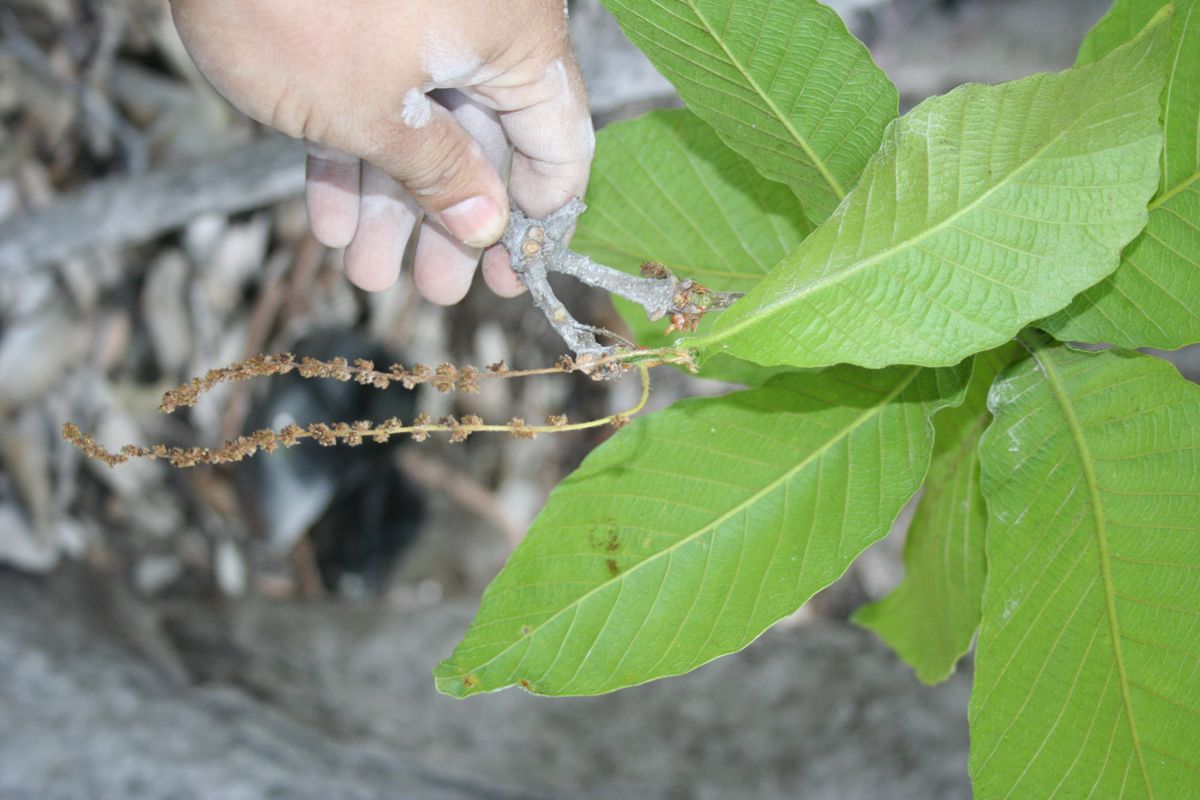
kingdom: Plantae
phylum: Tracheophyta
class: Magnoliopsida
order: Fagales
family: Fagaceae
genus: Quercus
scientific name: Quercus segoviensis
